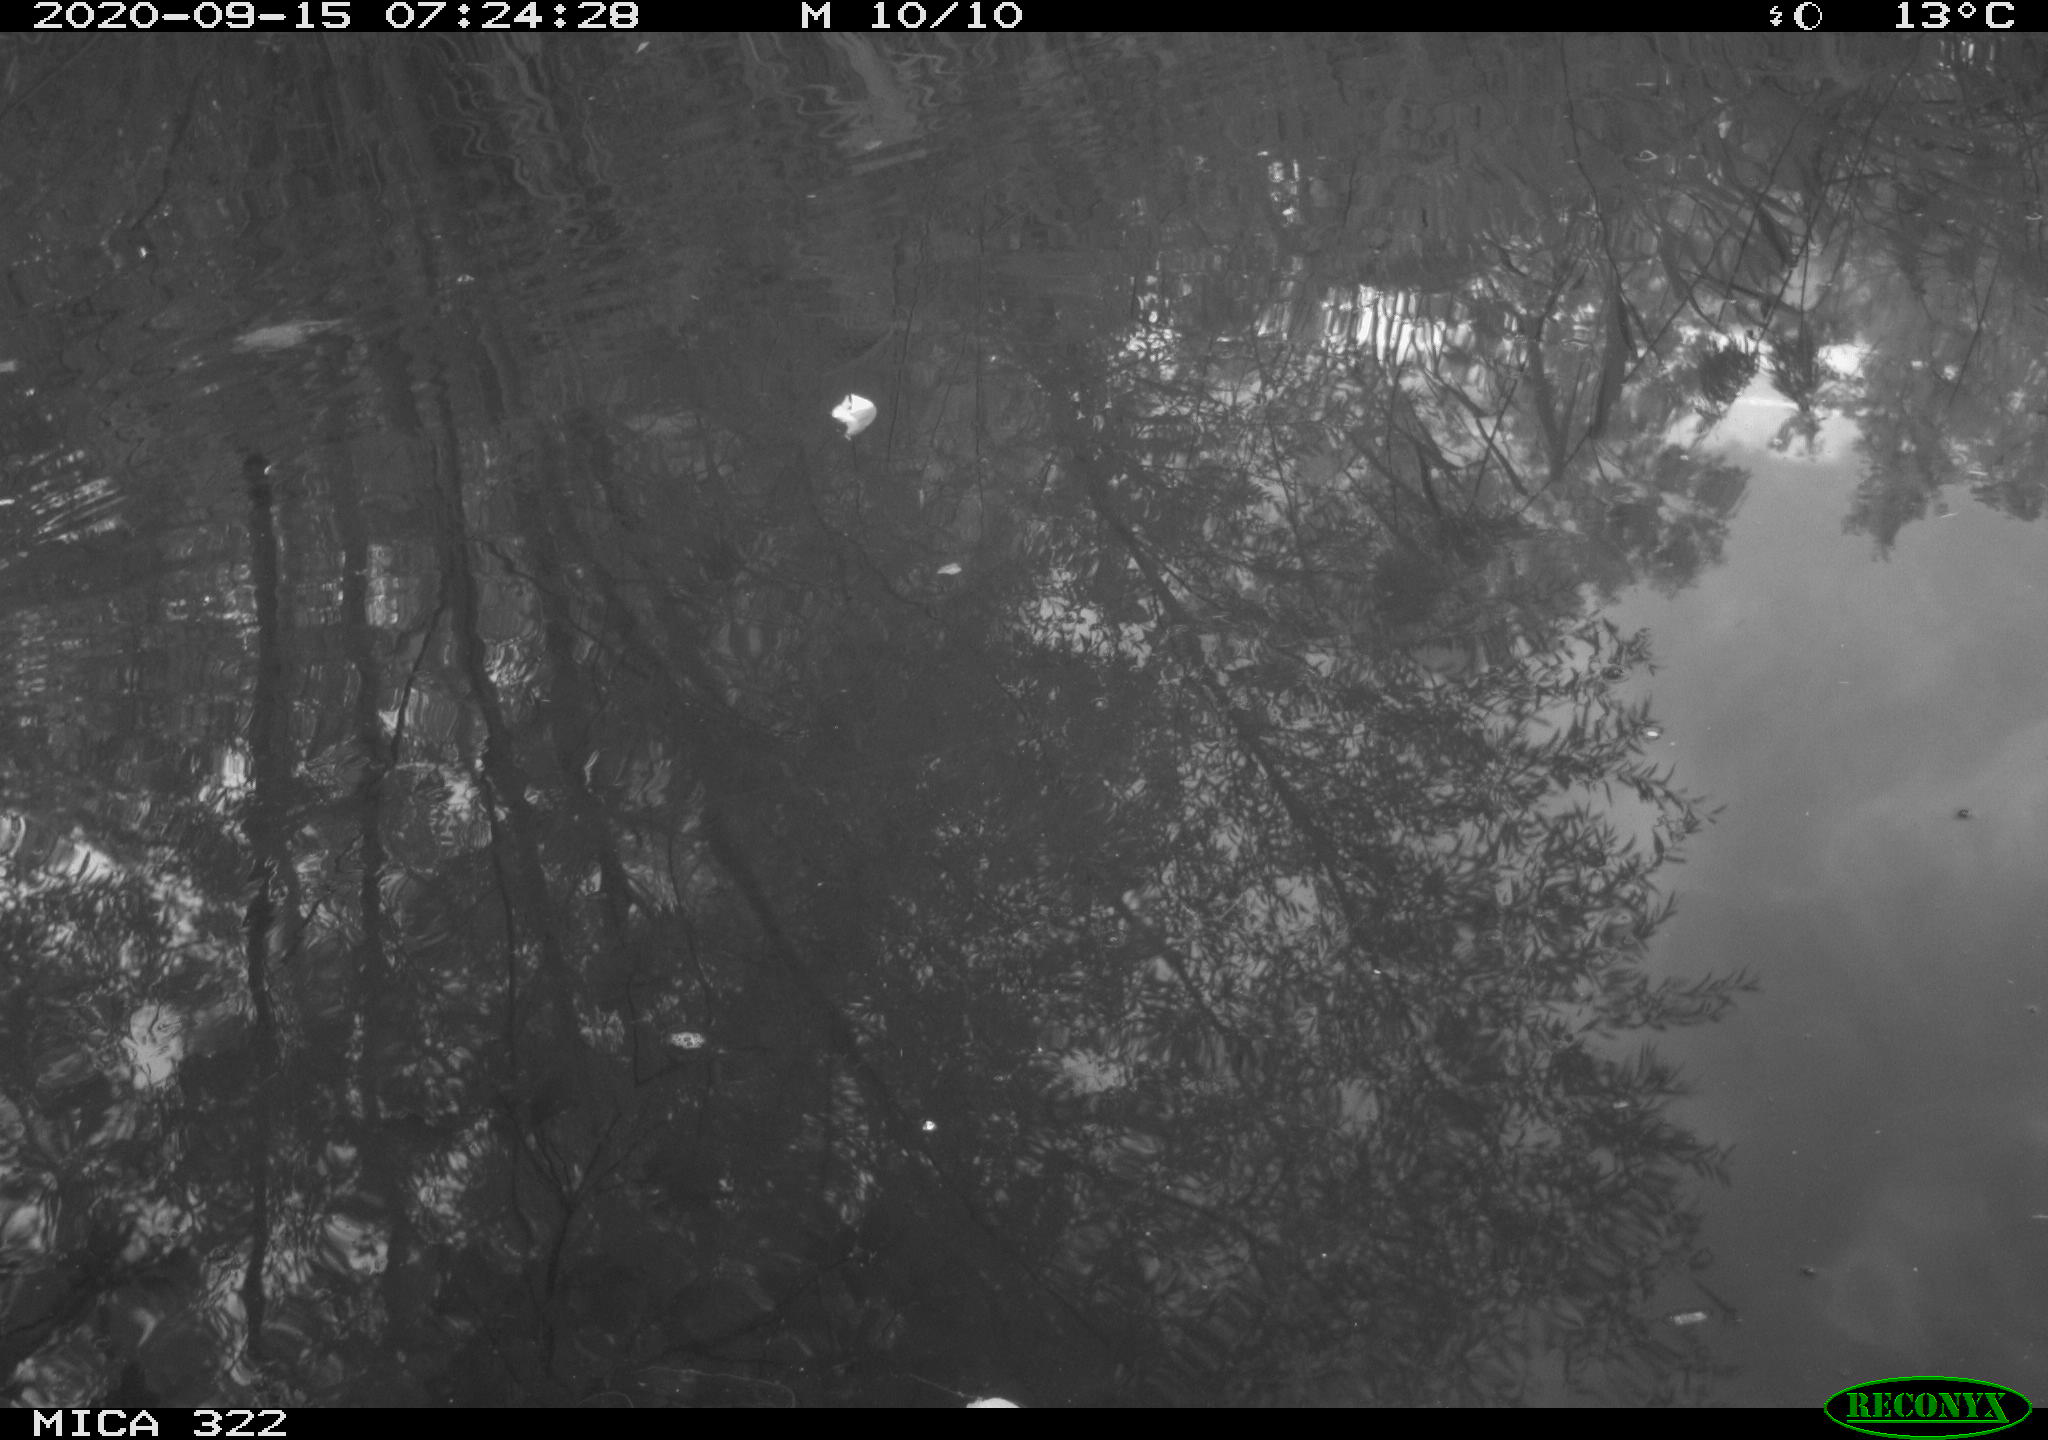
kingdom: Animalia
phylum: Chordata
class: Aves
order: Gruiformes
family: Rallidae
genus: Gallinula
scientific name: Gallinula chloropus
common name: Common moorhen
